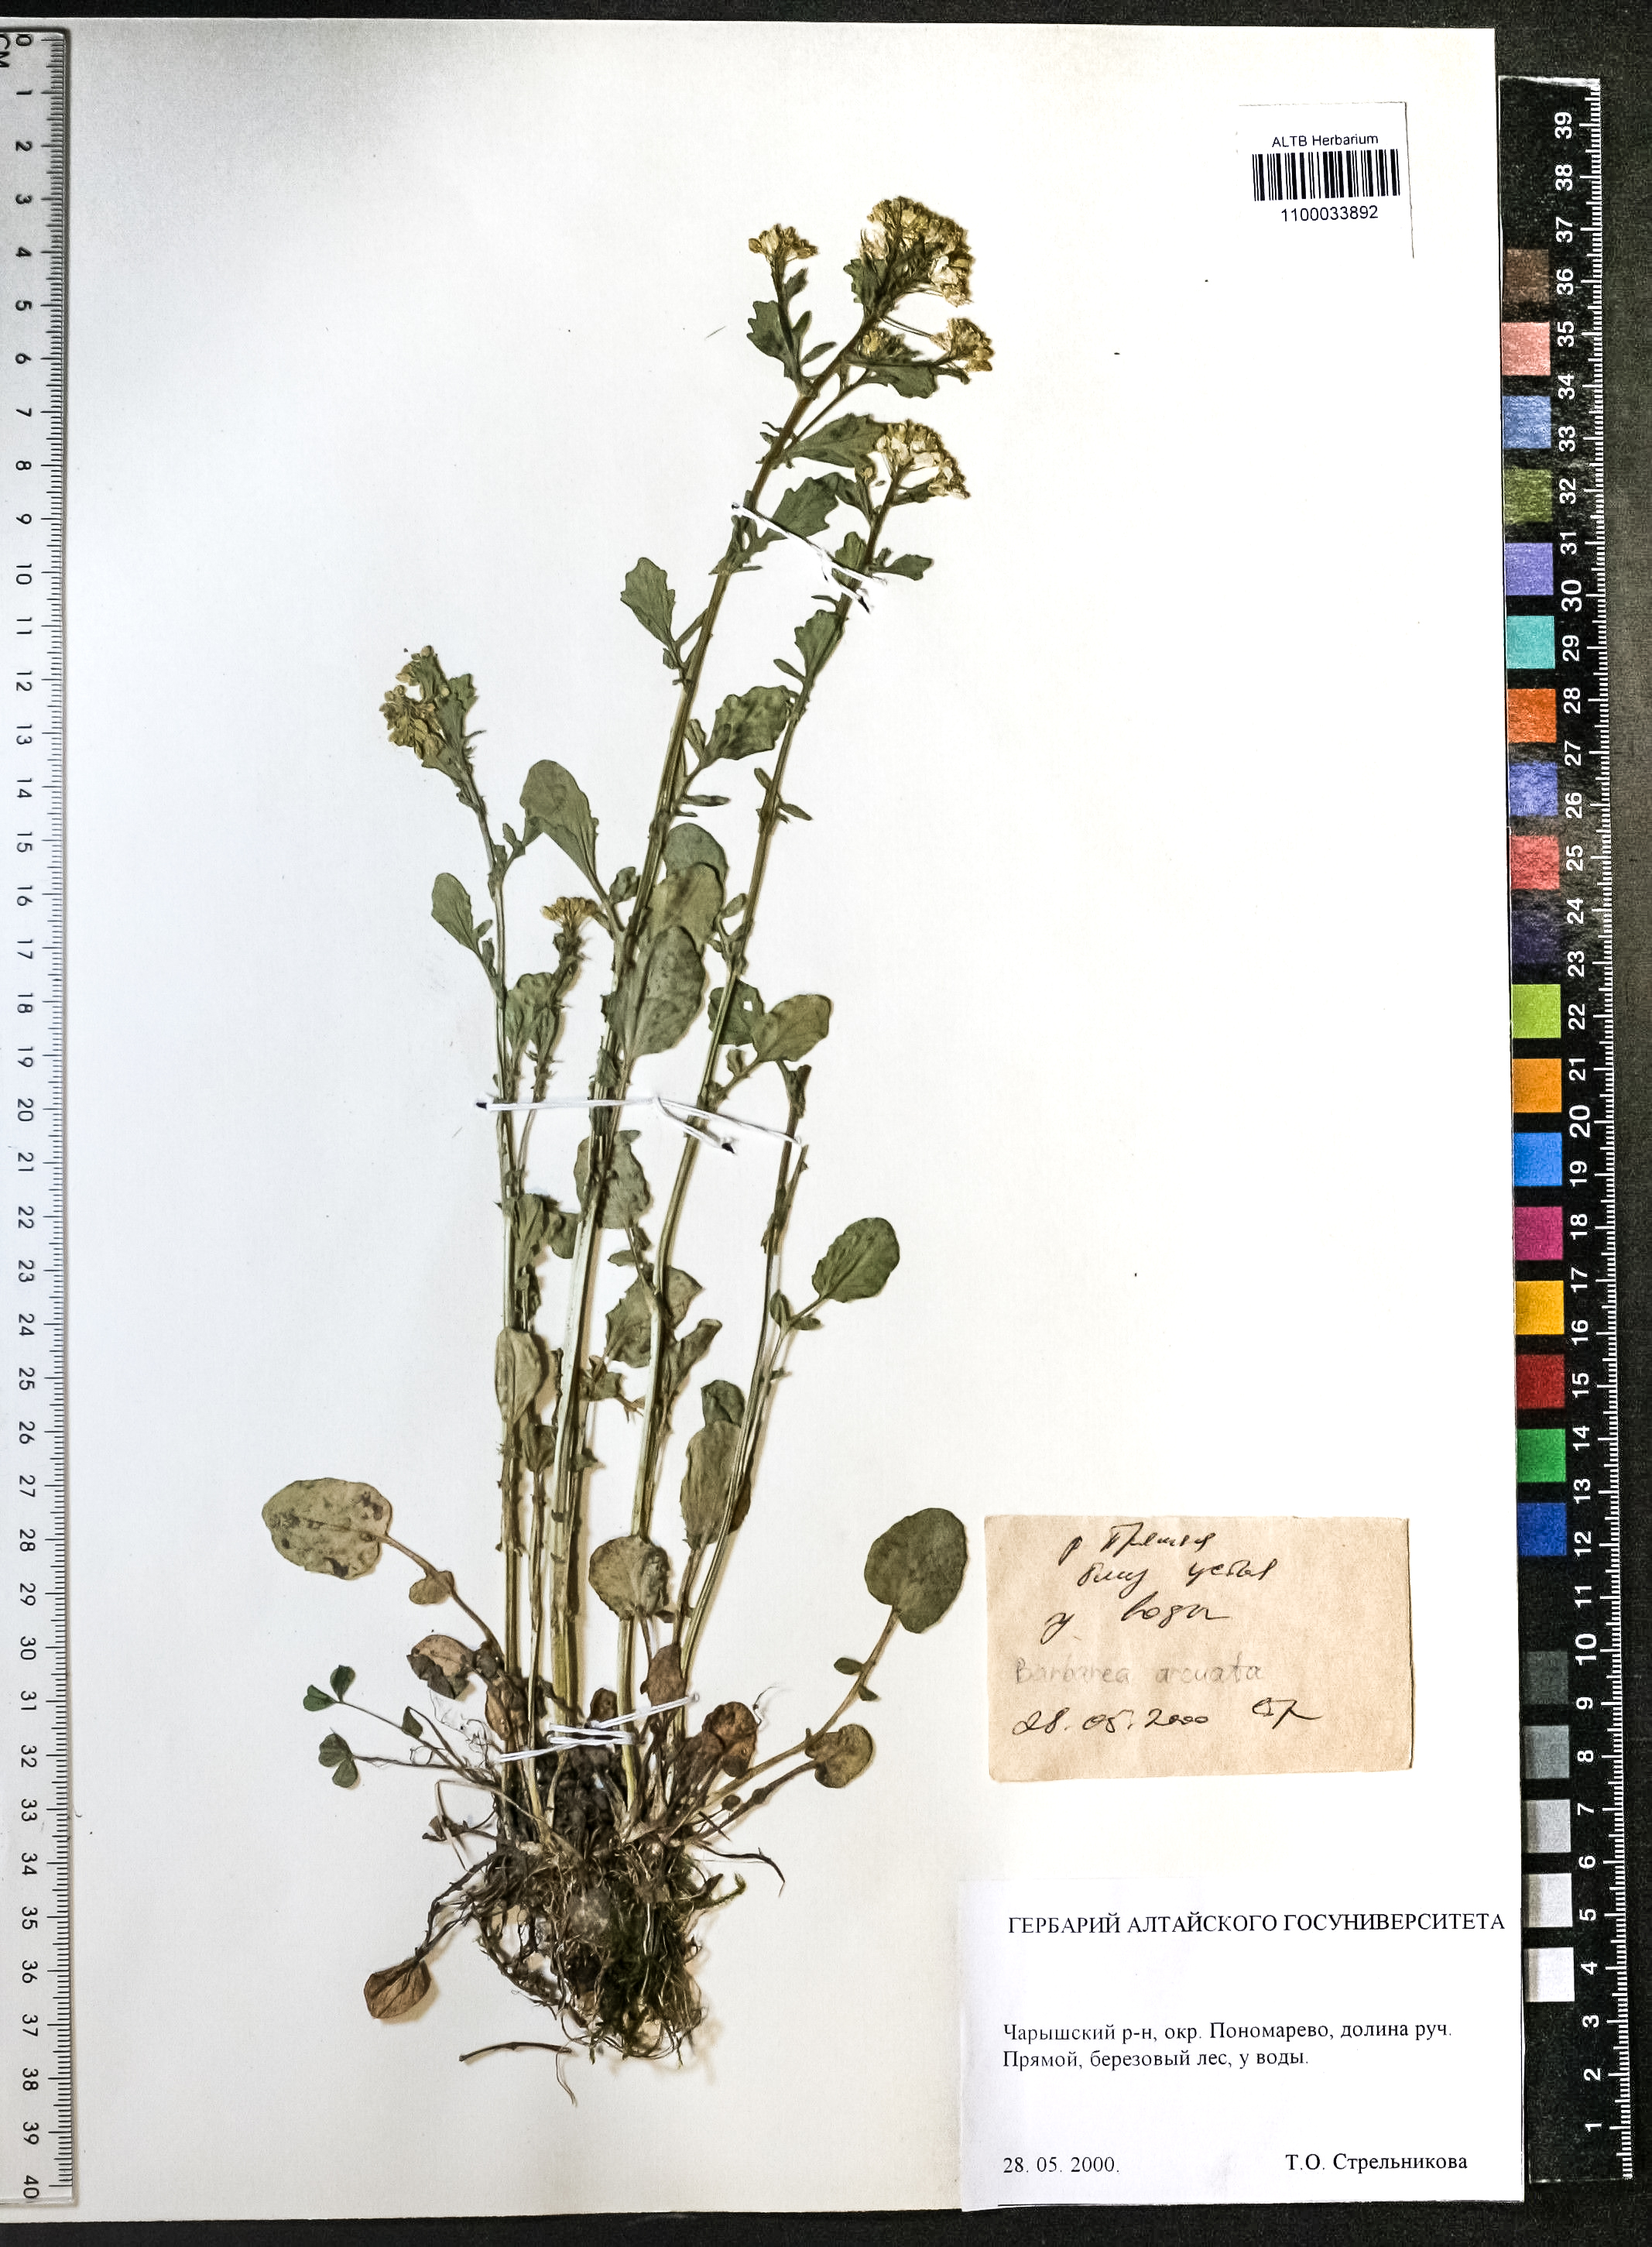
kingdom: Plantae
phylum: Tracheophyta
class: Magnoliopsida
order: Brassicales
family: Brassicaceae
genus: Barbarea
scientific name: Barbarea vulgaris
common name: Cressy-greens
